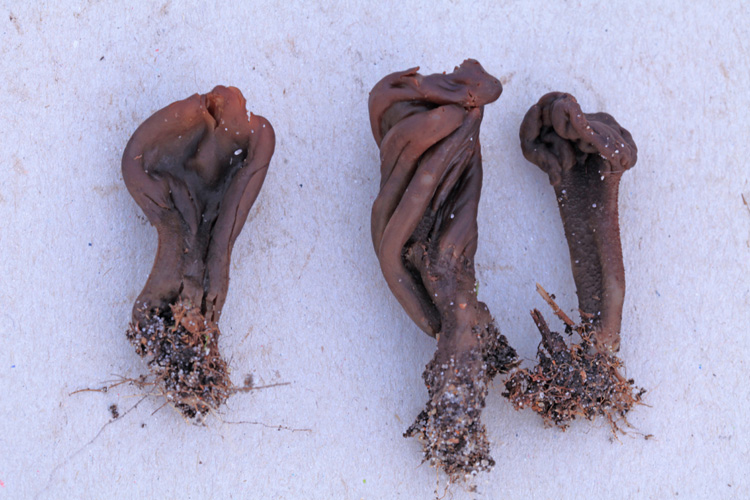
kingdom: Fungi
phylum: Ascomycota
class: Geoglossomycetes
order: Geoglossales
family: Geoglossaceae
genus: Geoglossum
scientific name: Geoglossum atropurpureum
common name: purpursort farvetunge
